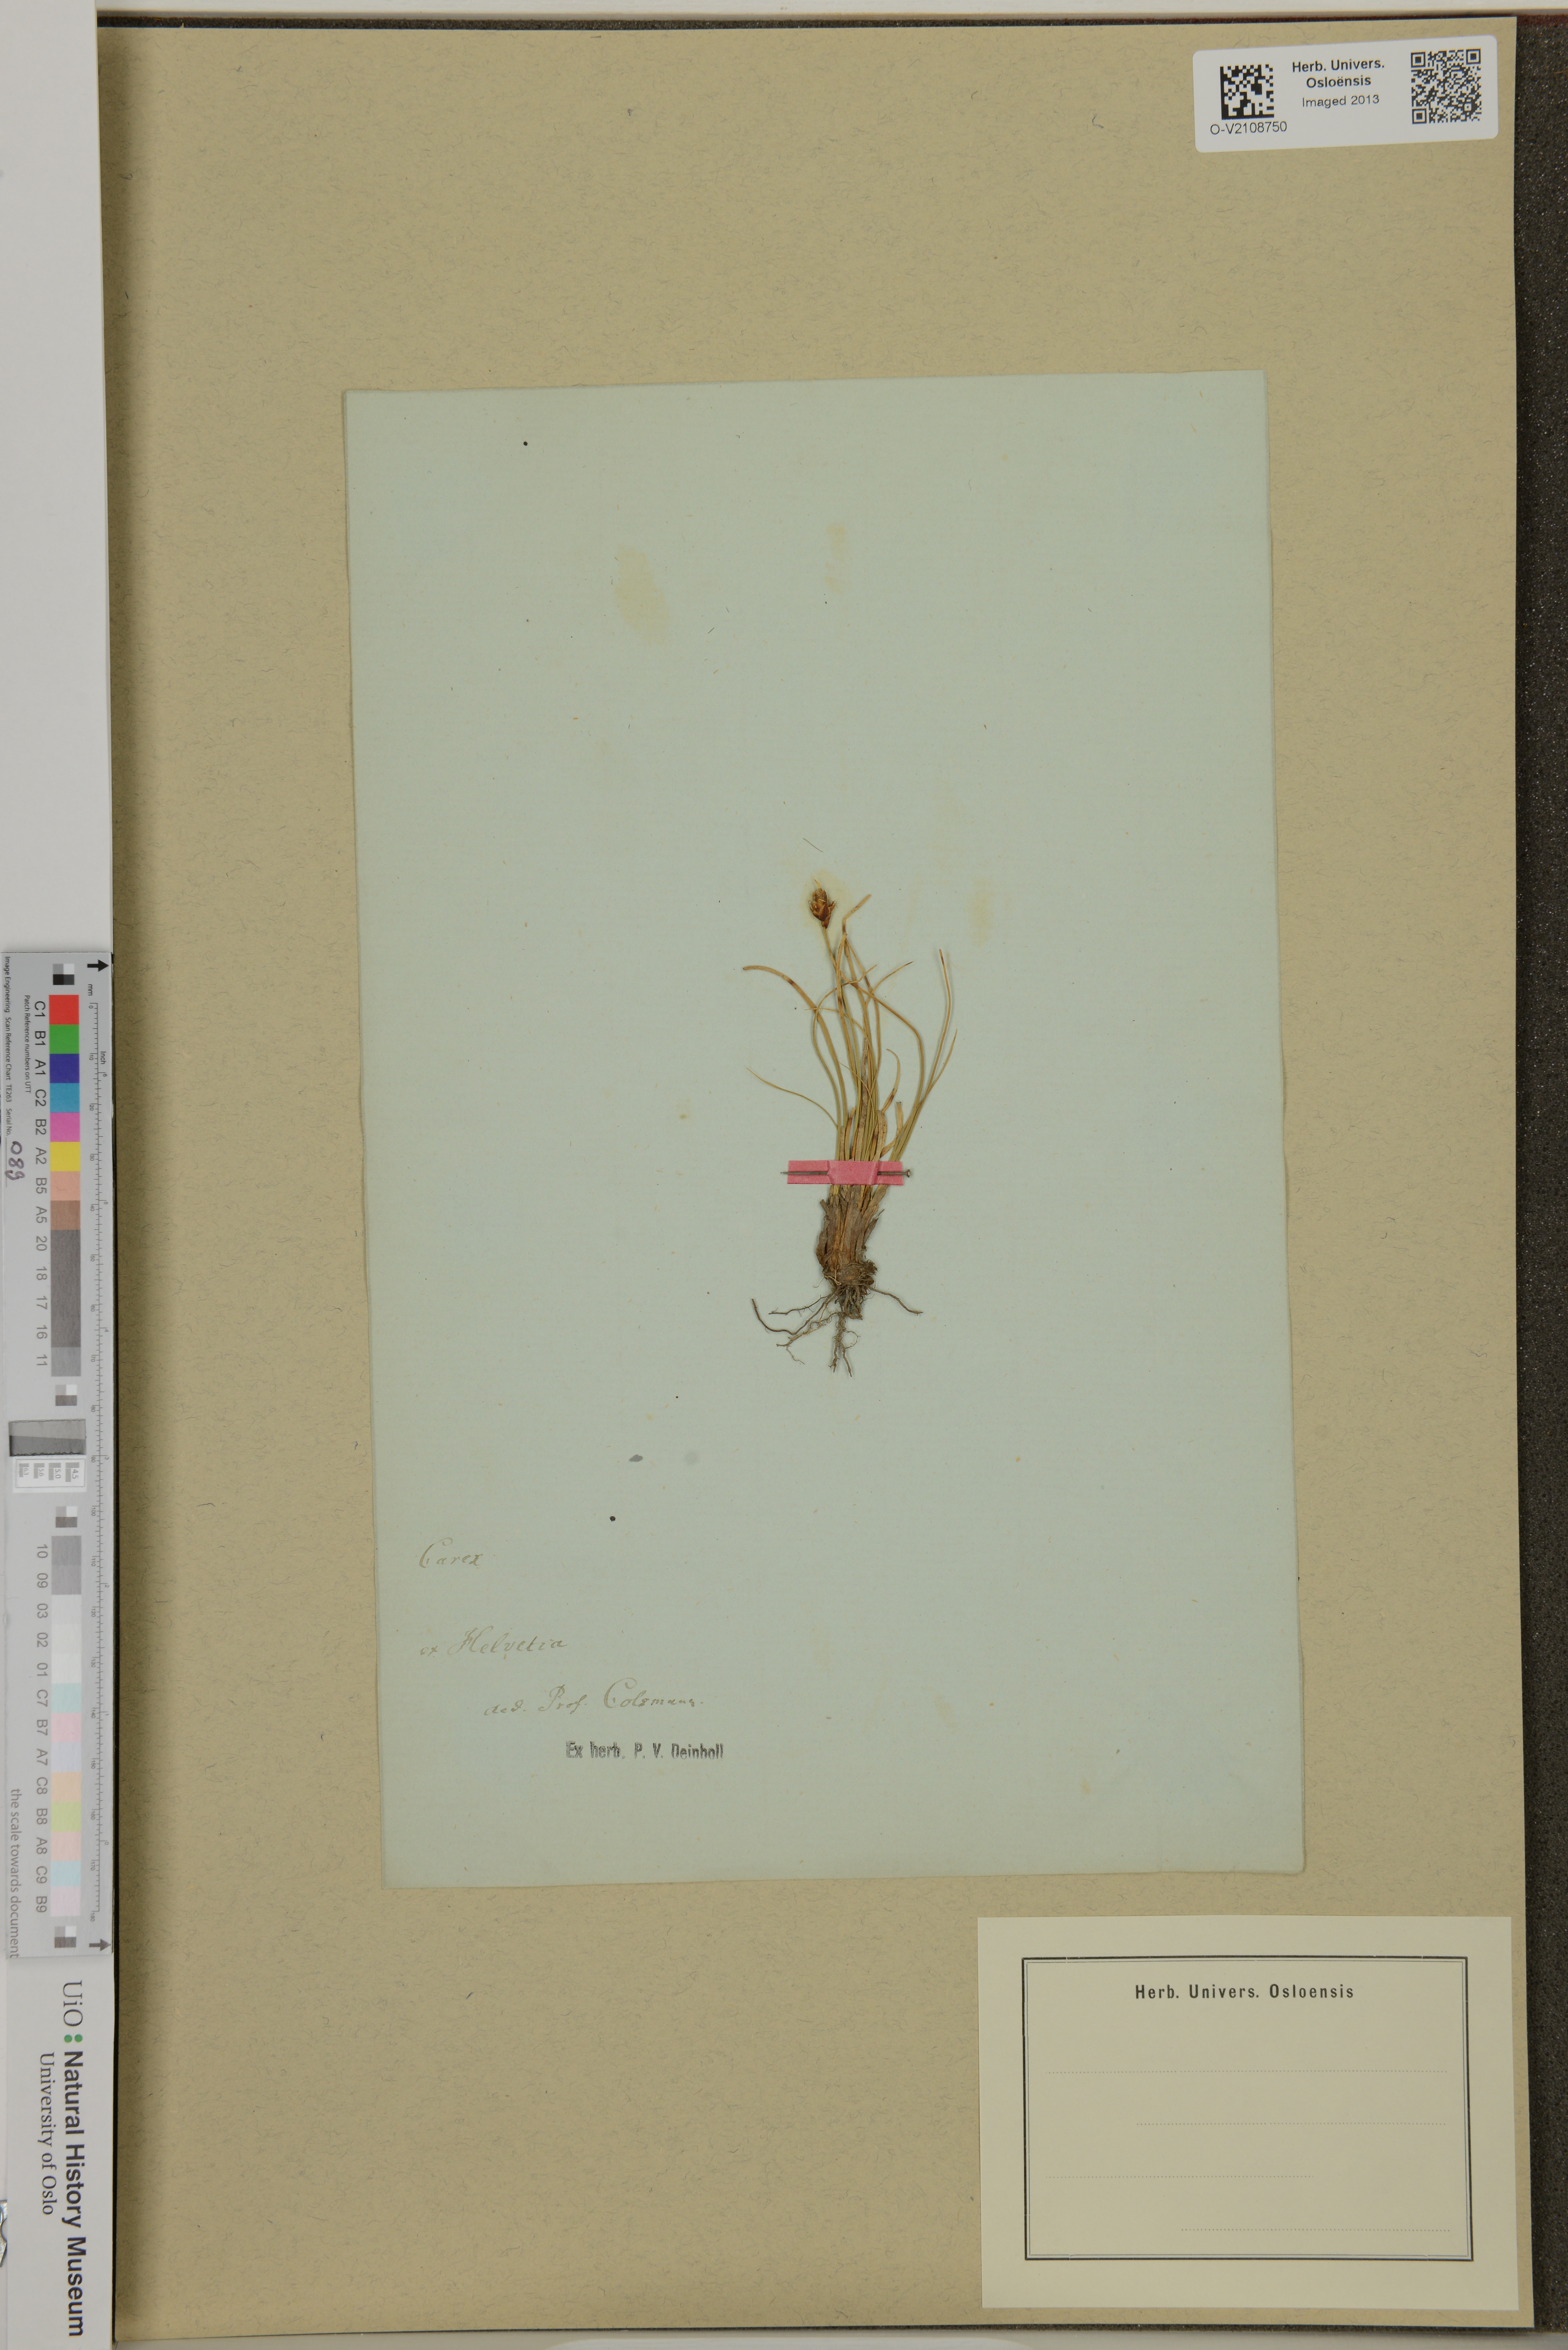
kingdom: Plantae
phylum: Tracheophyta
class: Liliopsida
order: Poales
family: Cyperaceae
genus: Carex
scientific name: Carex
